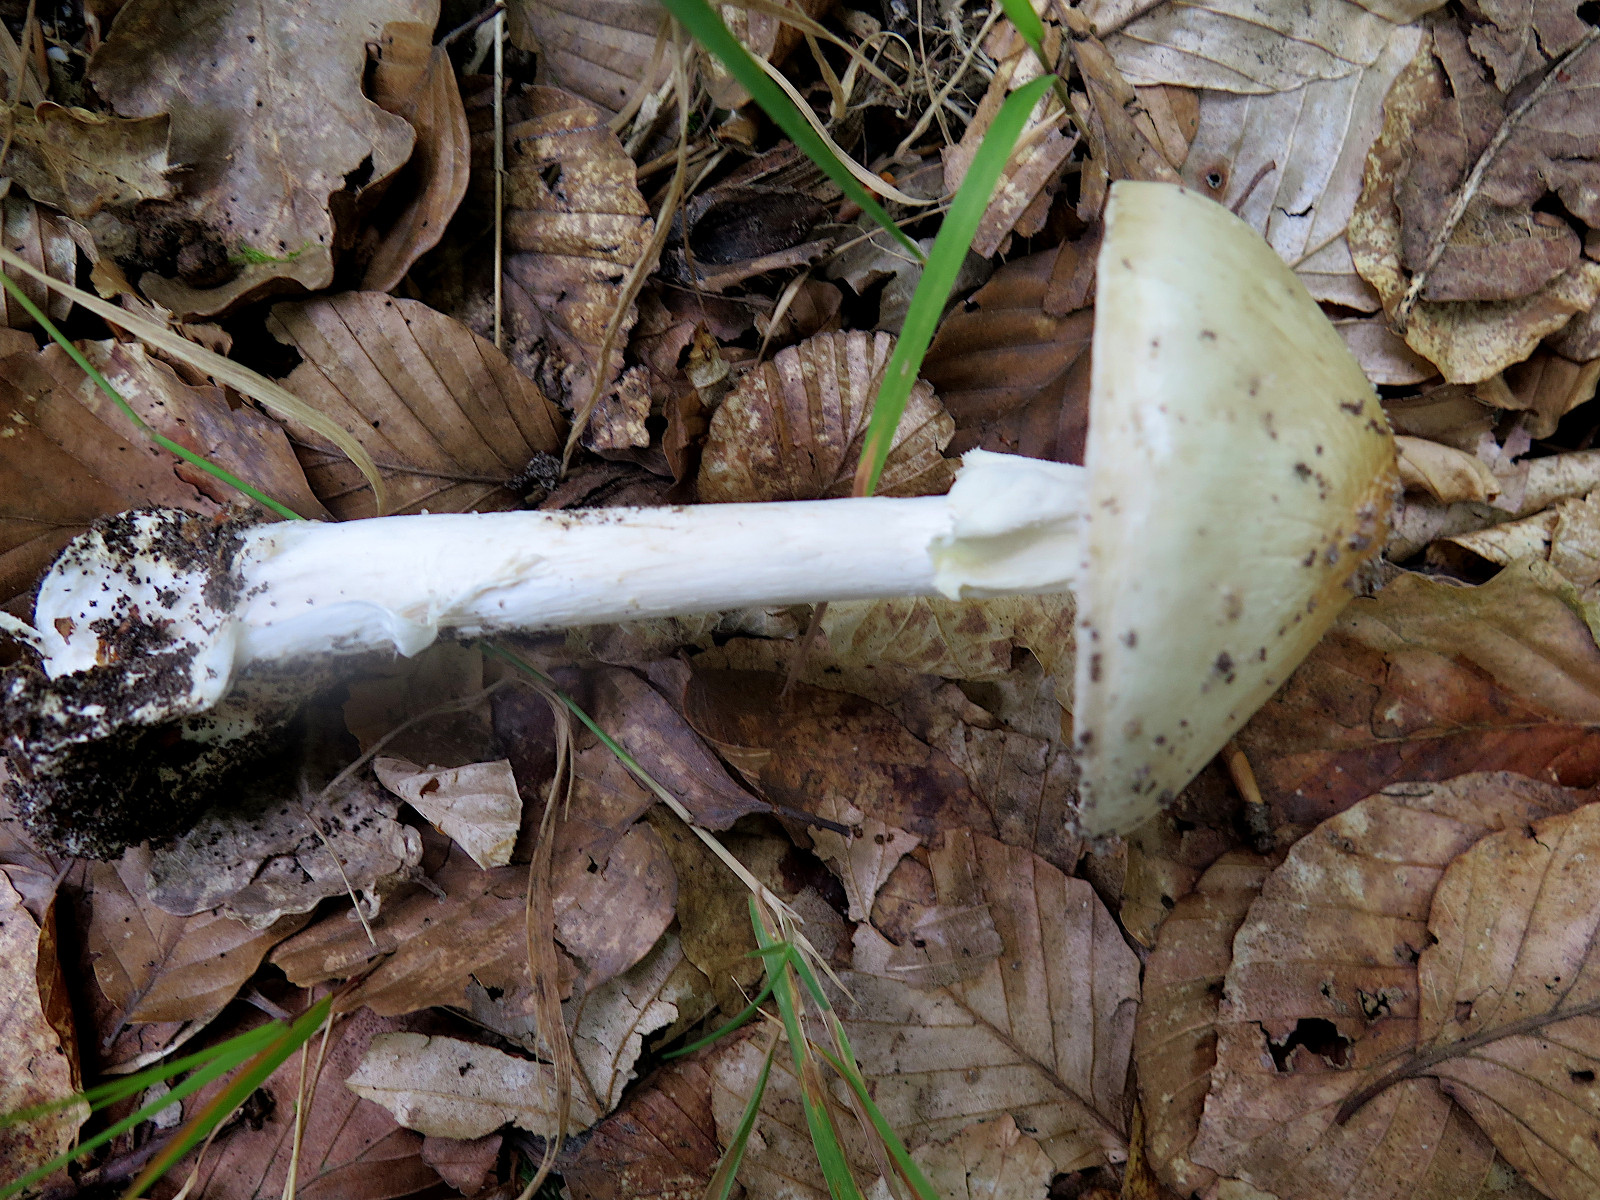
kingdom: Fungi
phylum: Basidiomycota
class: Agaricomycetes
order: Agaricales
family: Amanitaceae
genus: Amanita
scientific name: Amanita citrina
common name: kugleknoldet fluesvamp
